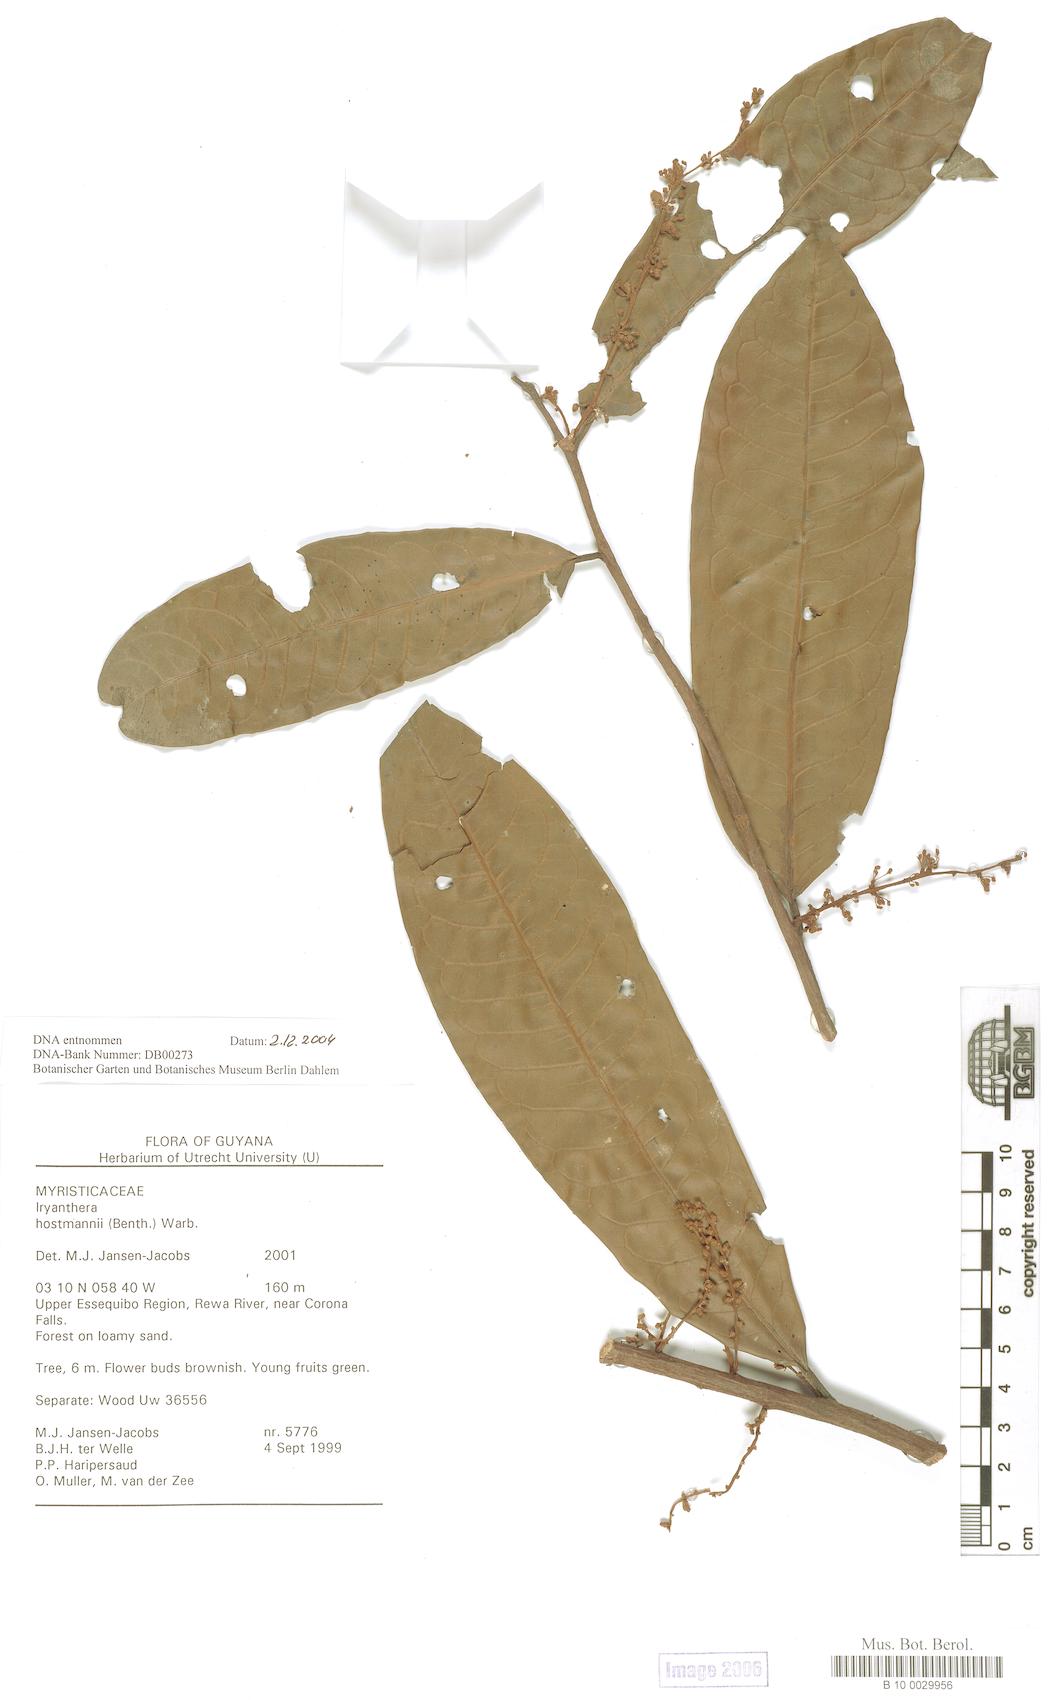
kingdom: Plantae
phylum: Tracheophyta
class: Magnoliopsida
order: Magnoliales
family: Myristicaceae
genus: Iryanthera
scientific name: Iryanthera hostmannii
